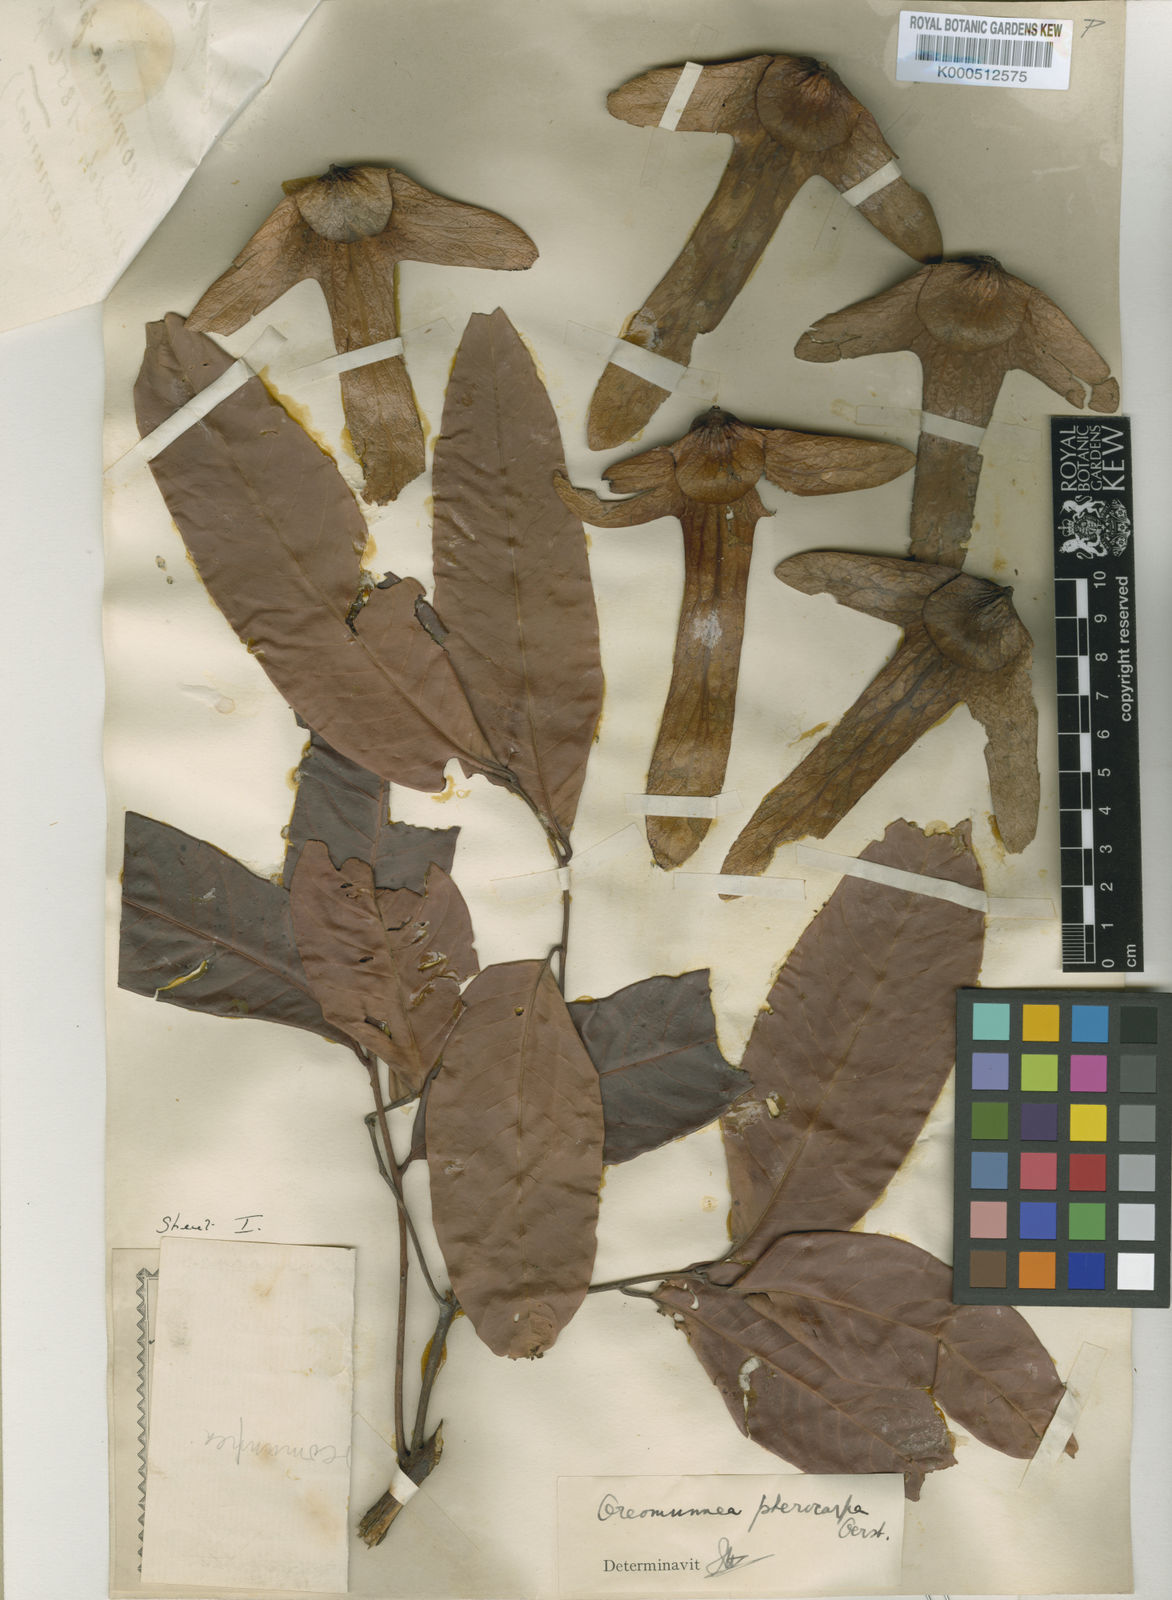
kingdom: Plantae
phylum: Tracheophyta
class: Magnoliopsida
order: Fagales
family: Juglandaceae
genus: Oreomunnea
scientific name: Oreomunnea pterocarpa
